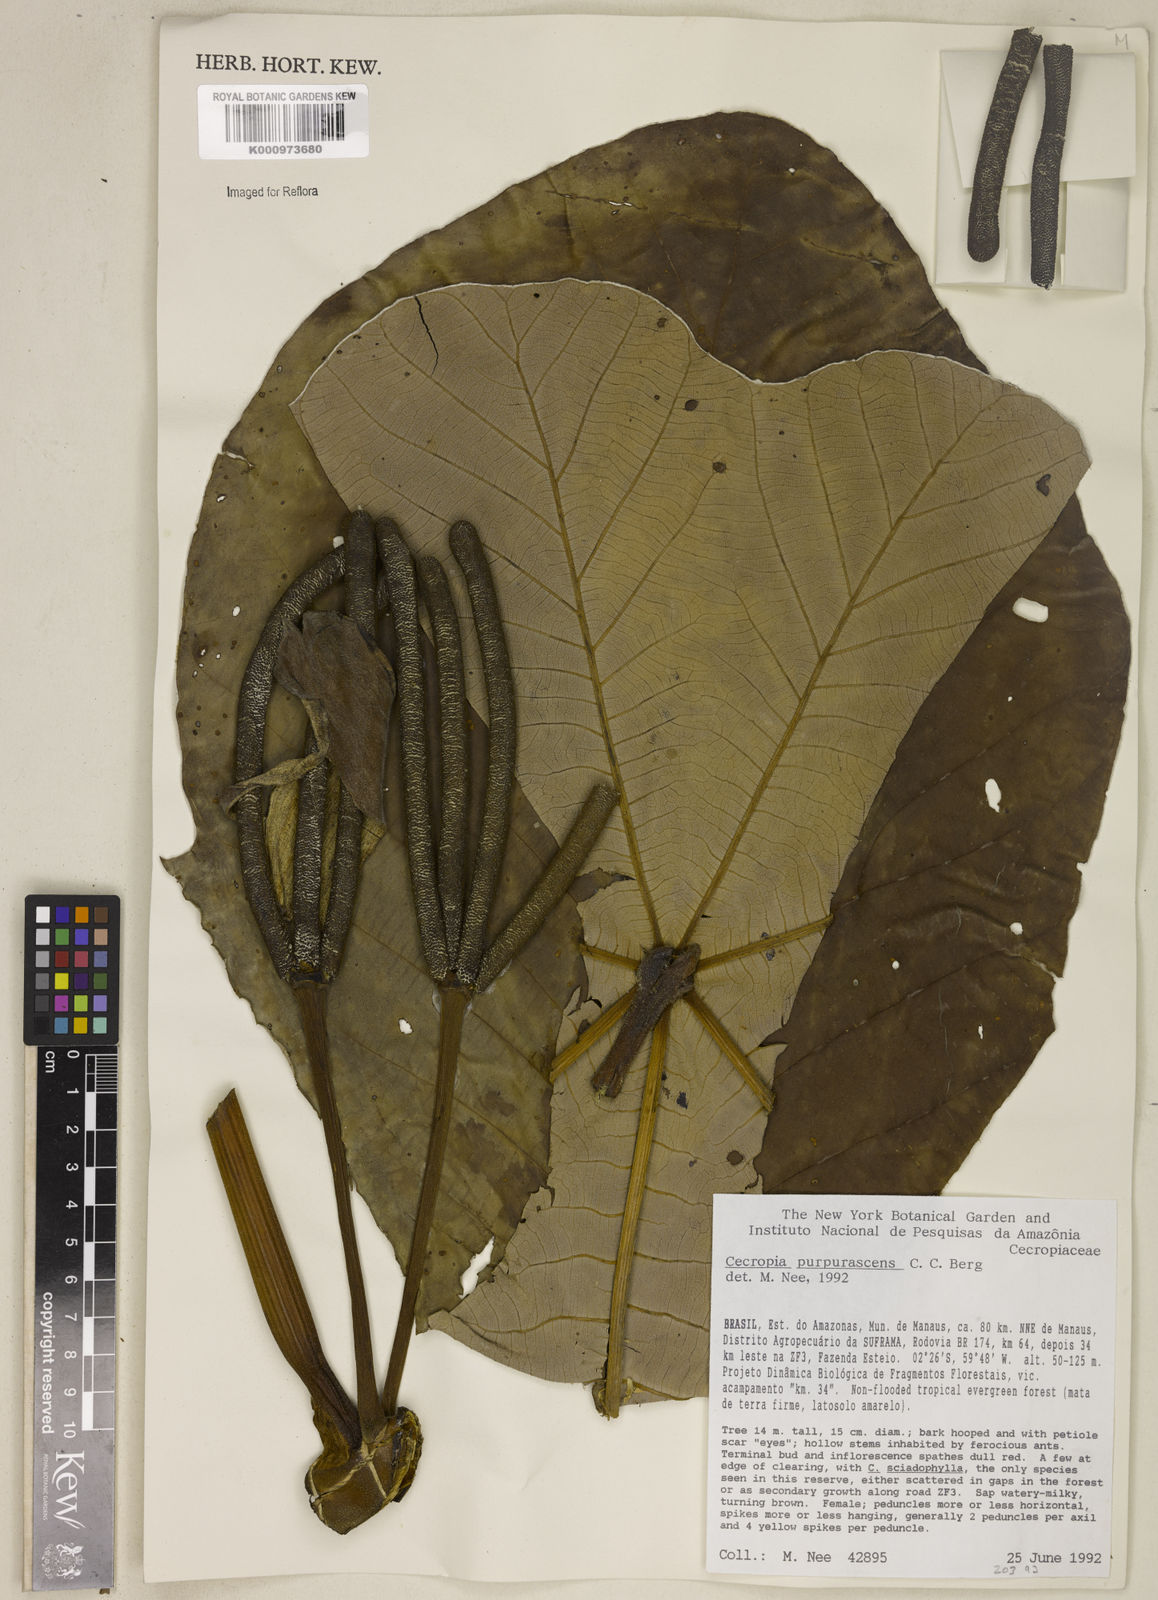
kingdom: Plantae
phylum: Tracheophyta
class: Magnoliopsida
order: Rosales
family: Urticaceae
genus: Cecropia
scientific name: Cecropia purpurascens
